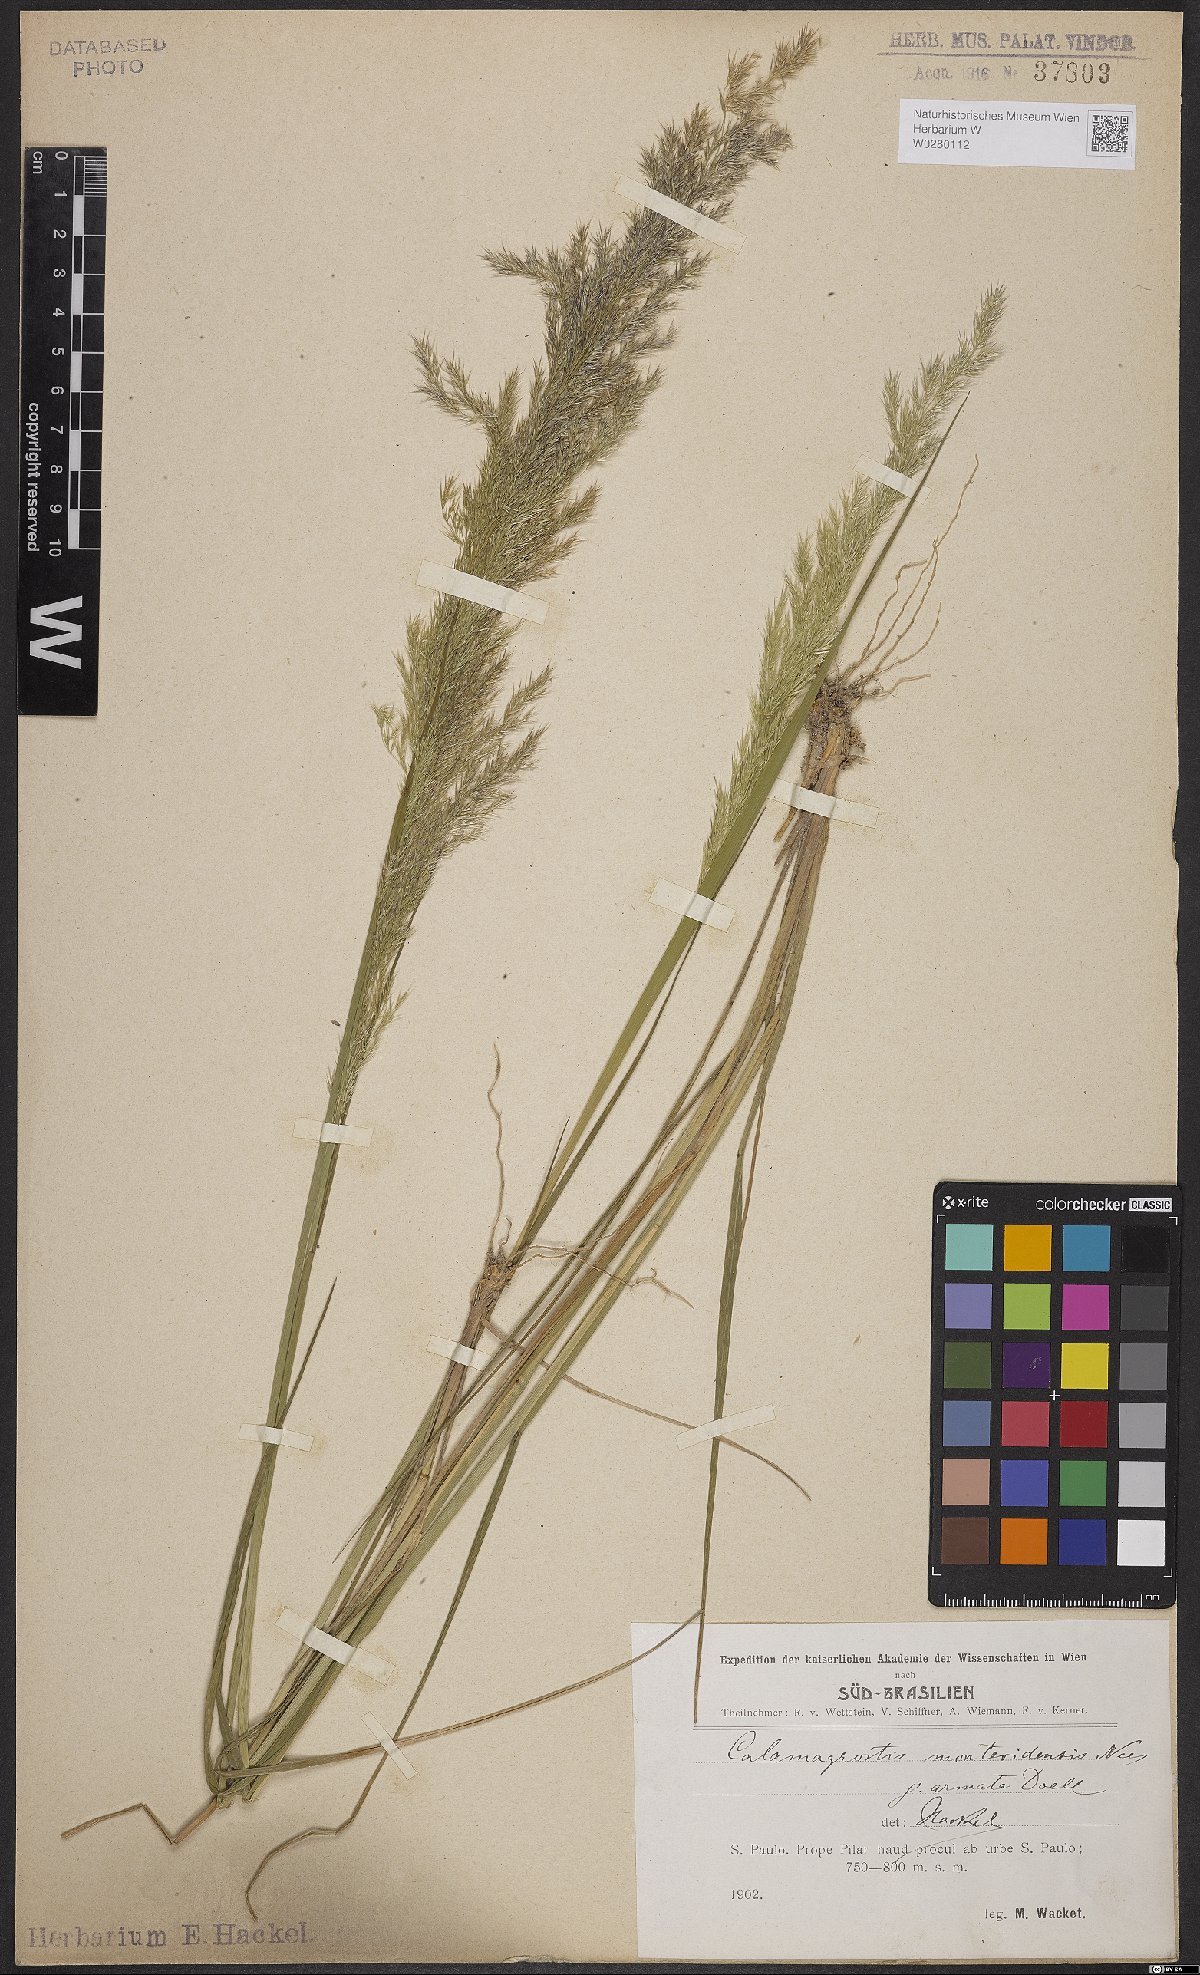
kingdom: Plantae
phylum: Tracheophyta
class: Liliopsida
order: Poales
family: Poaceae
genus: Cinnagrostis
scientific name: Cinnagrostis viridiflavescens
